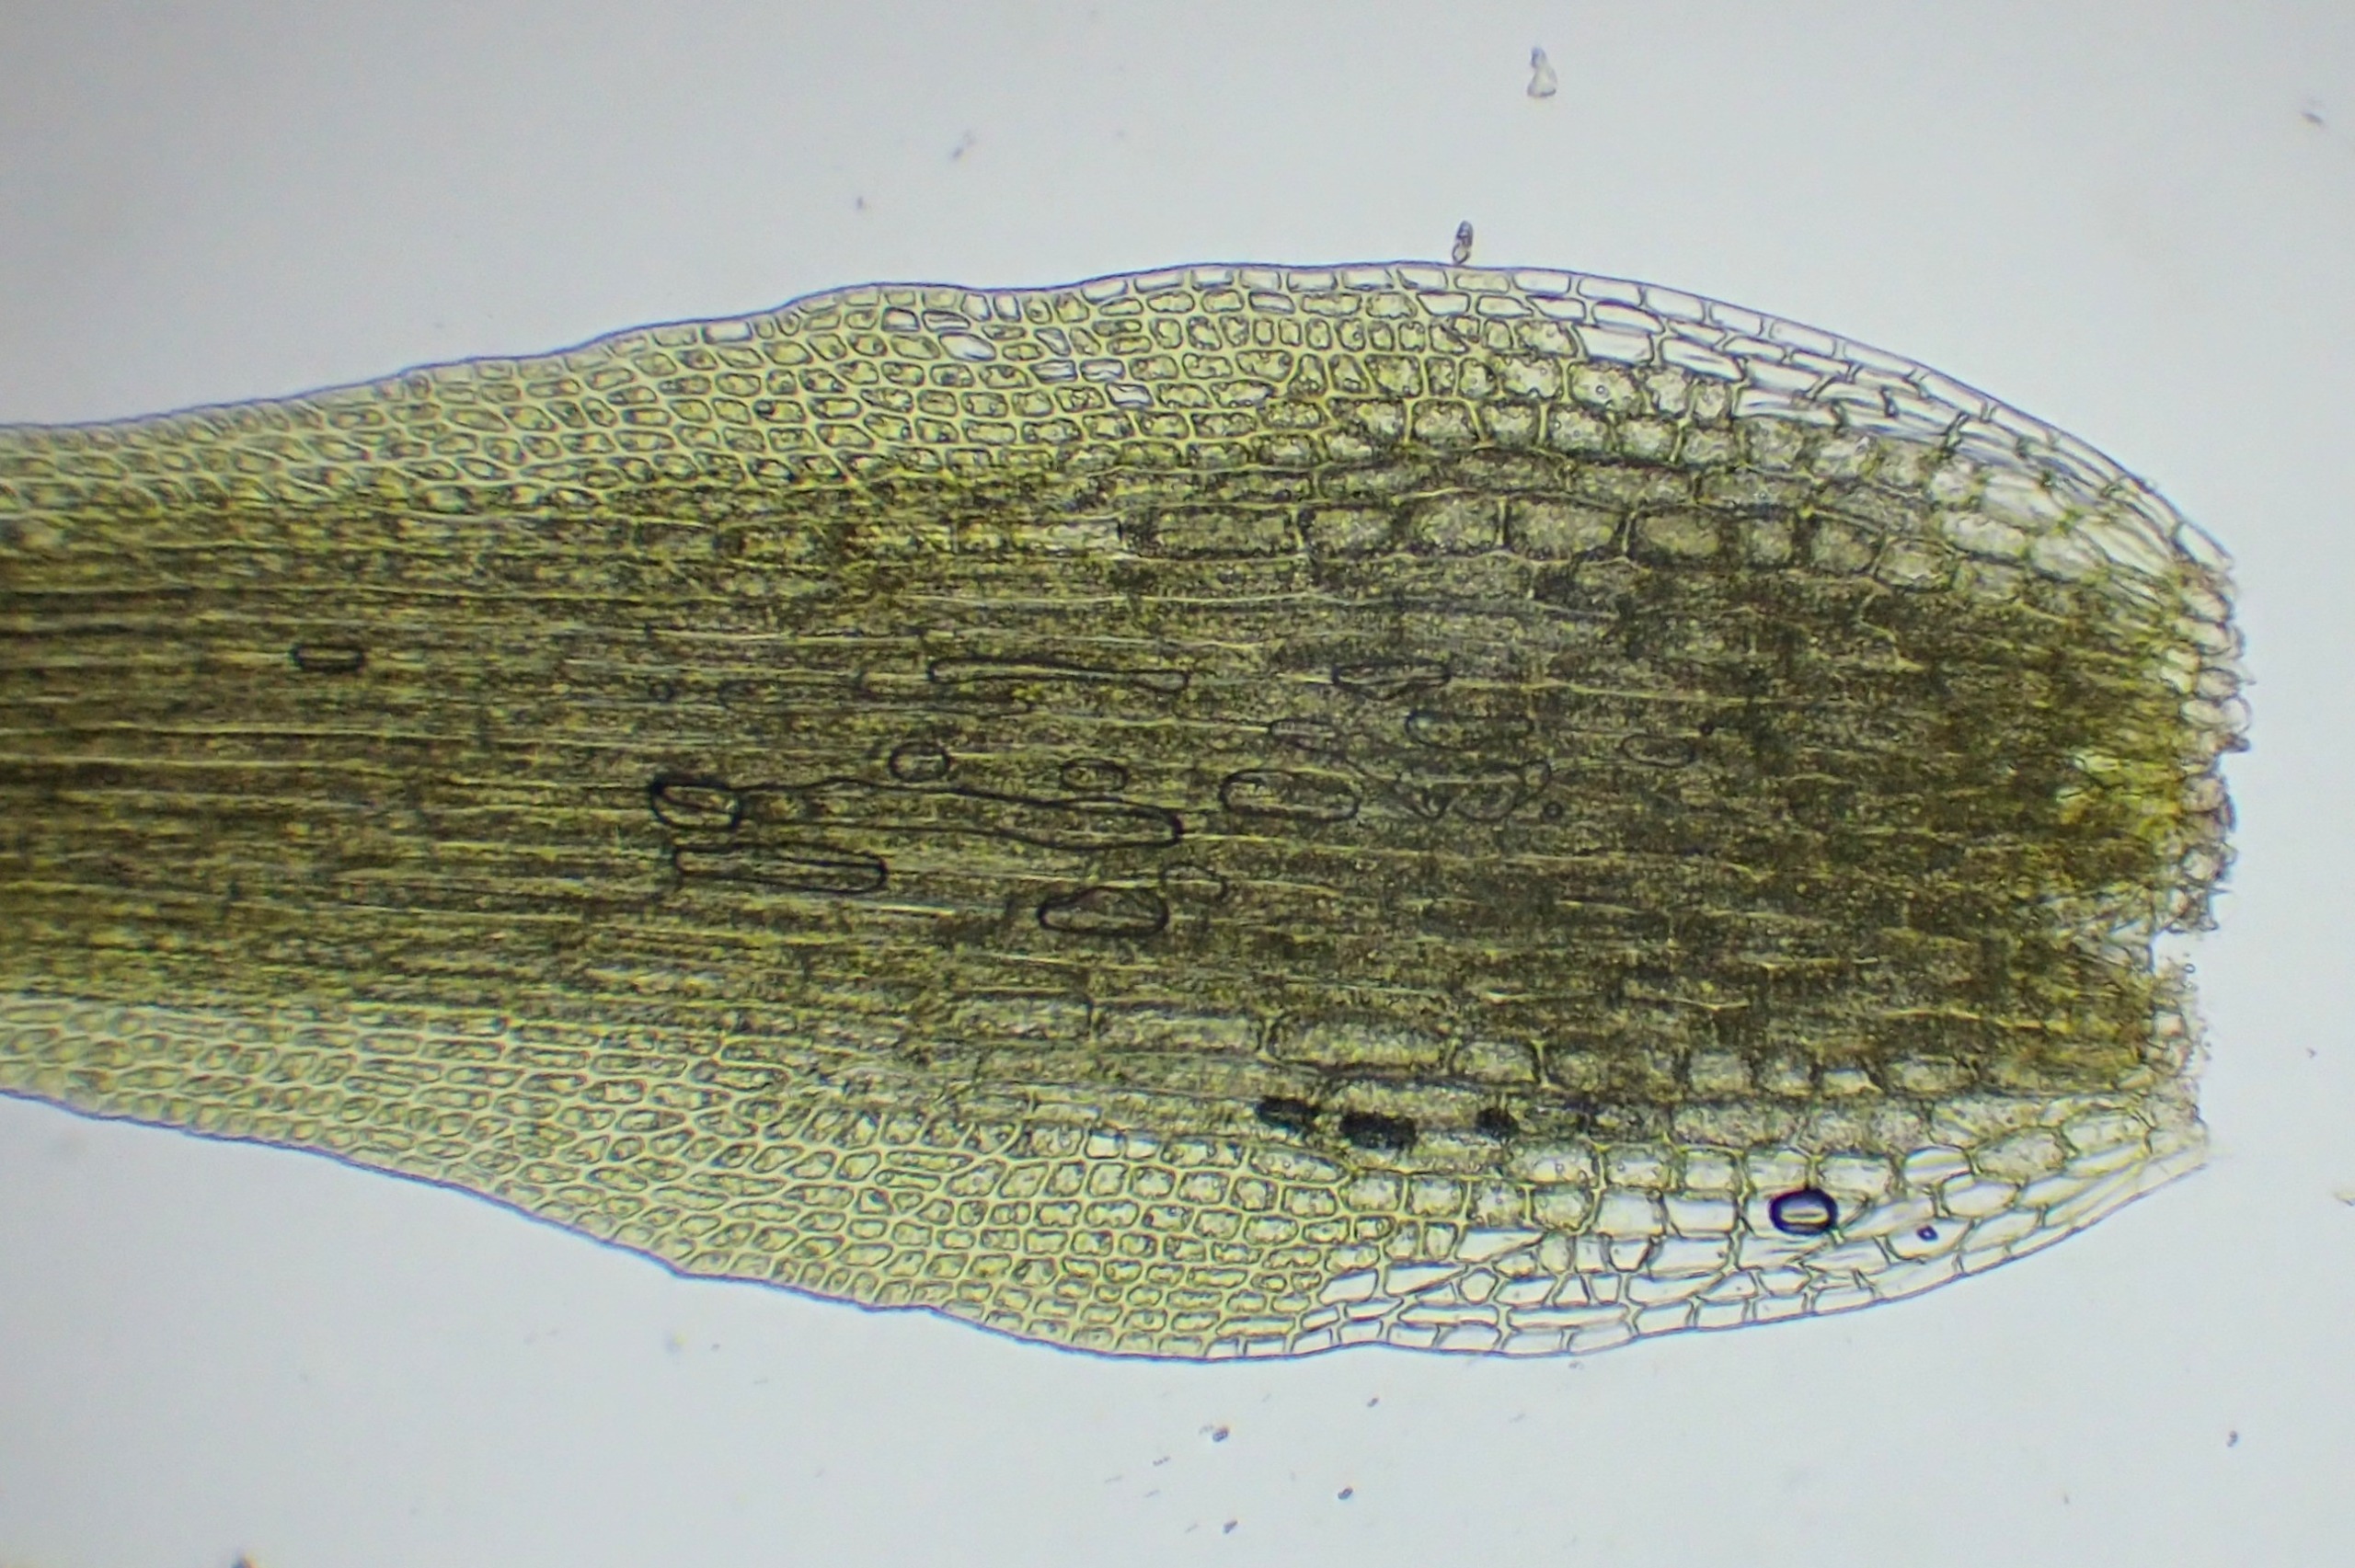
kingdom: Plantae
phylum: Bryophyta
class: Bryopsida
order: Dicranales
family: Leucobryaceae
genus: Campylopus
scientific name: Campylopus pyriformis
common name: Almindelig bredribbe
